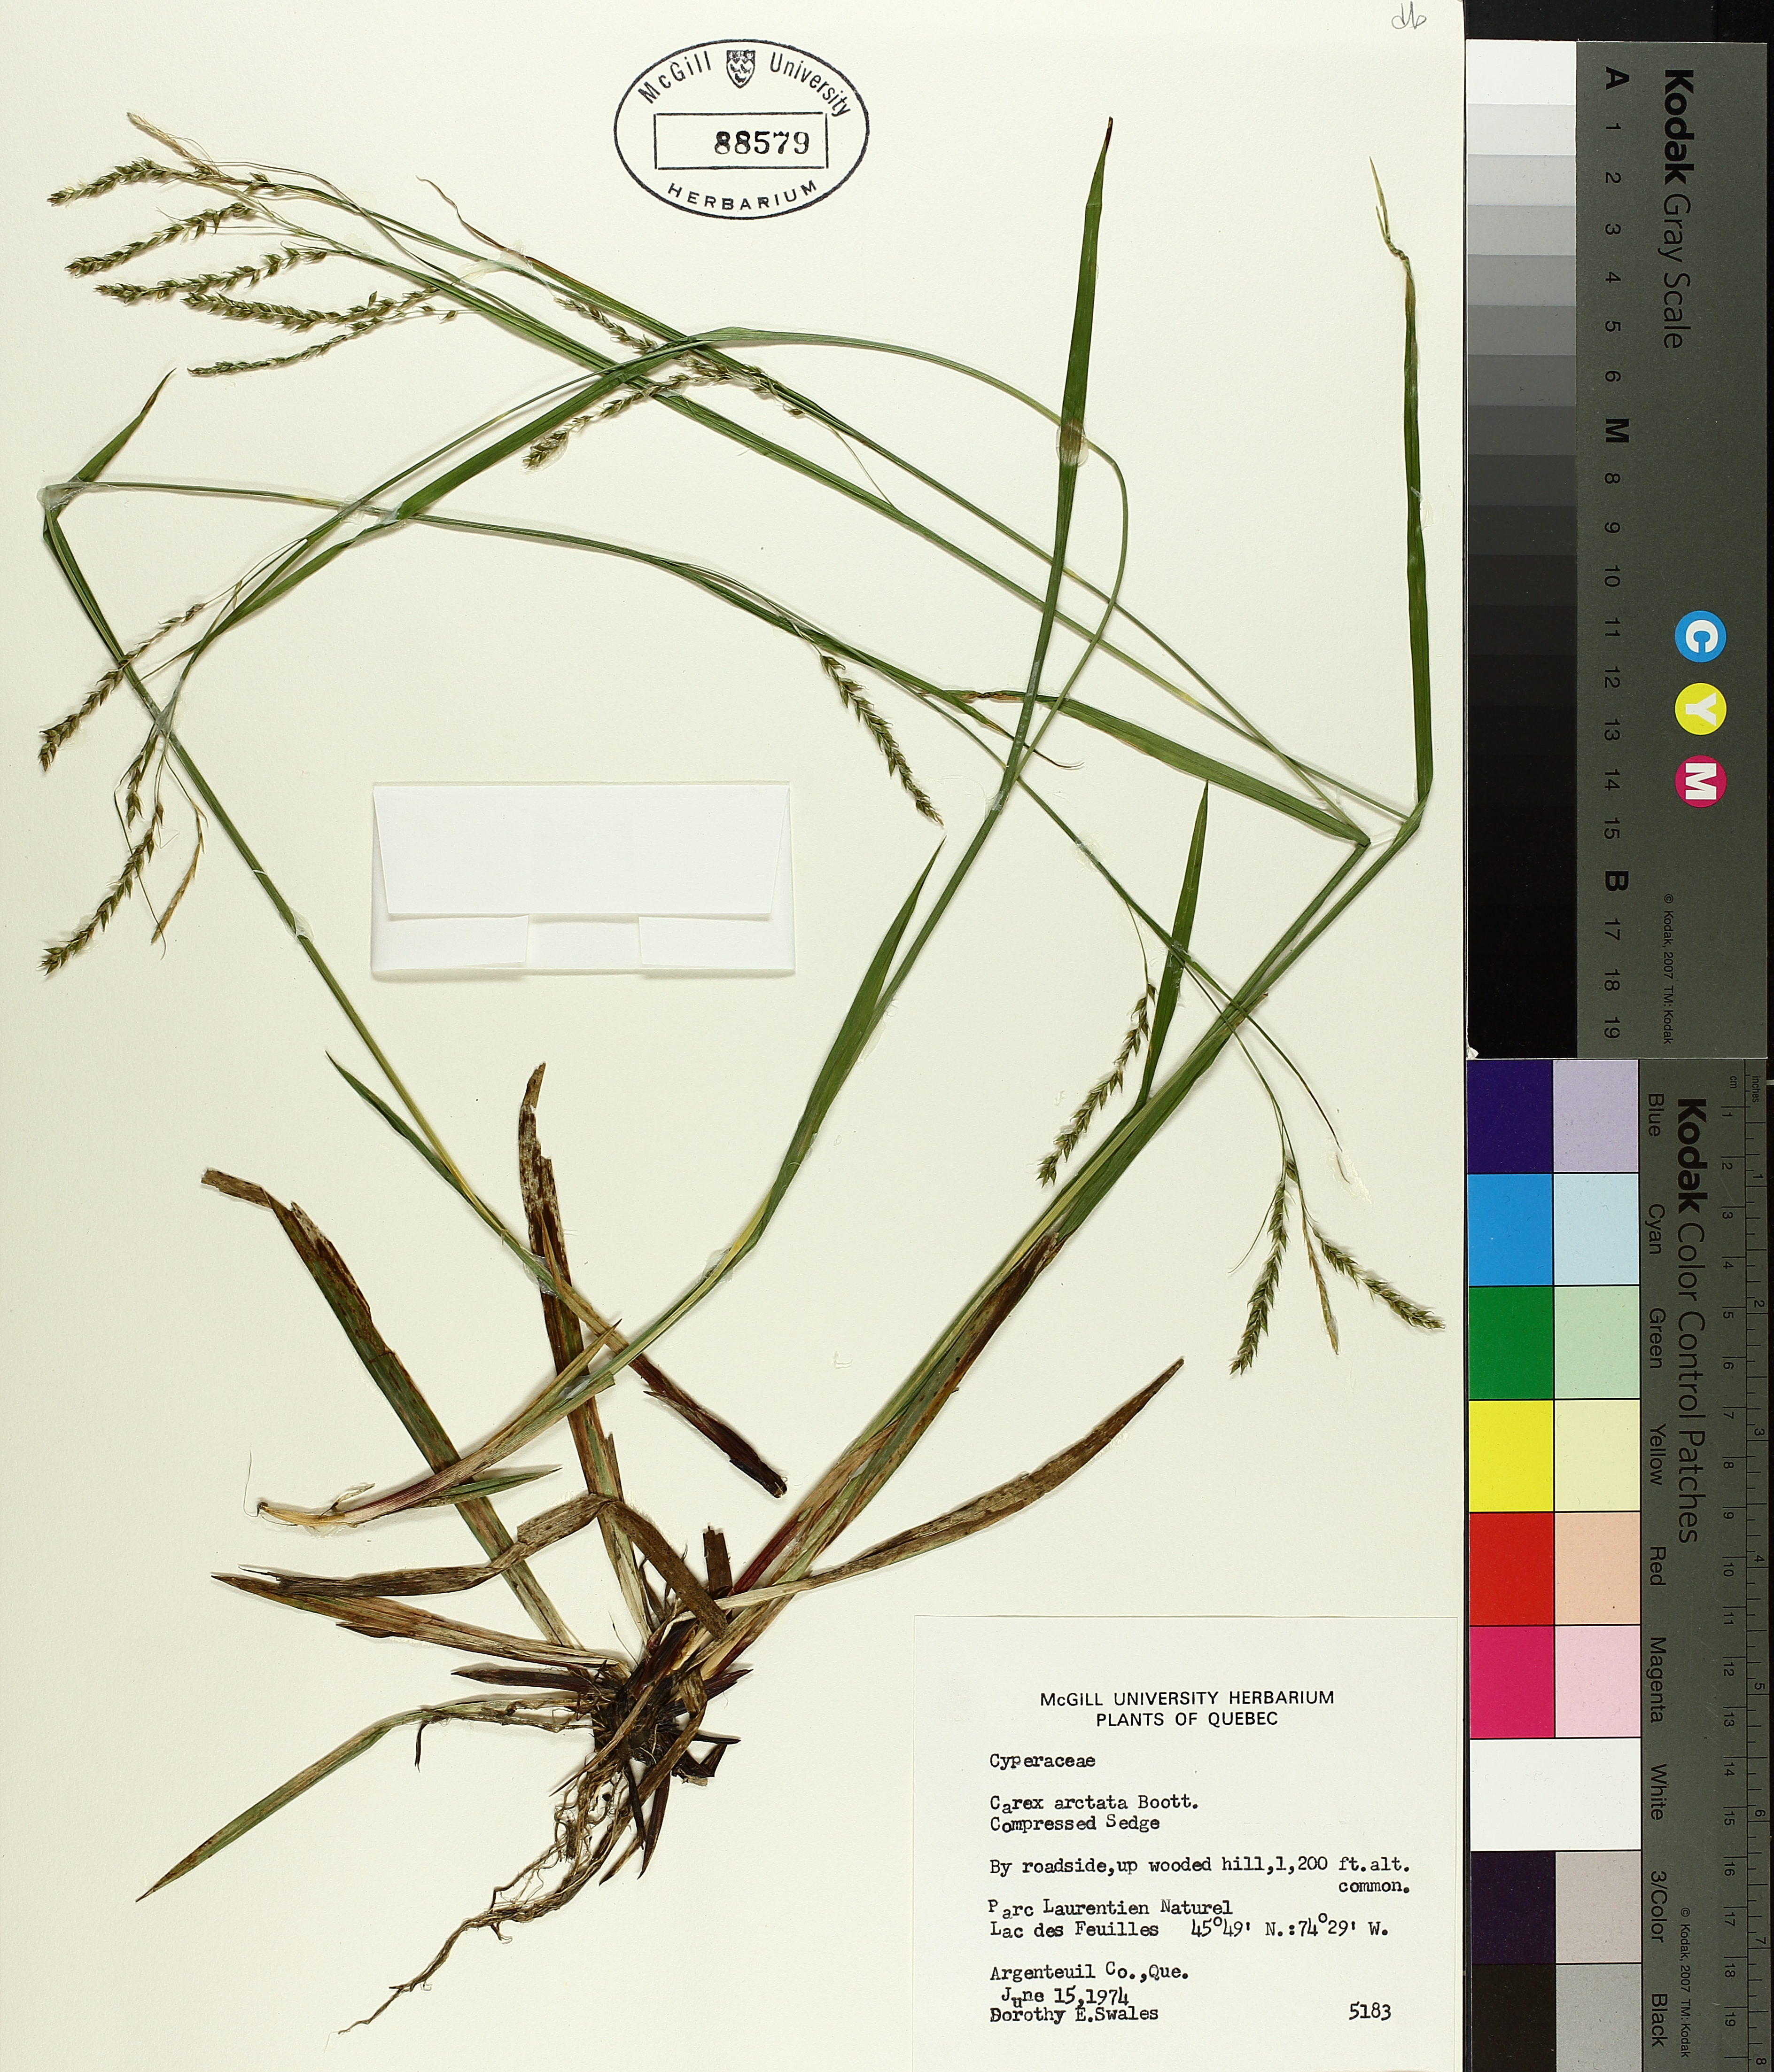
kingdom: Plantae
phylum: Tracheophyta
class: Liliopsida
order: Poales
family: Cyperaceae
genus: Carex
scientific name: Carex arctata
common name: Black sedge
